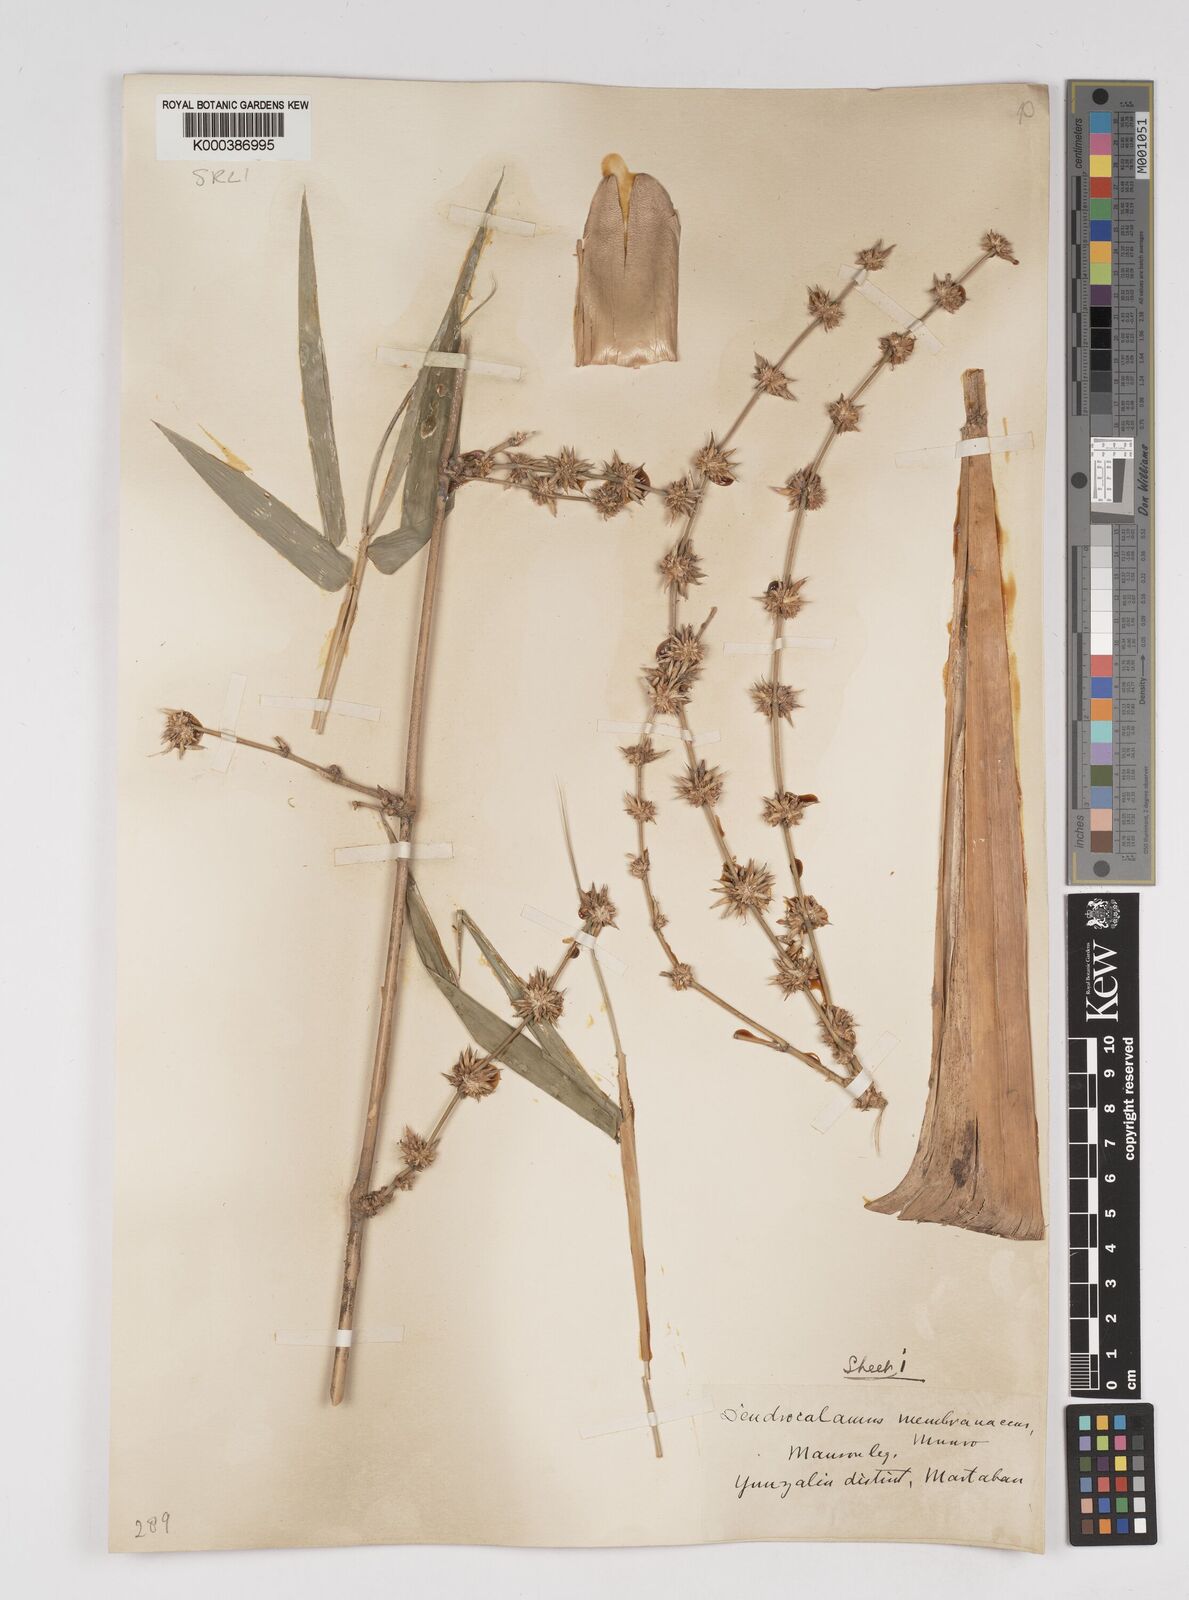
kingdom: Plantae
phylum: Tracheophyta
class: Liliopsida
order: Poales
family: Poaceae
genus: Dendrocalamus
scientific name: Dendrocalamus membranaceus
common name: White bamboo
